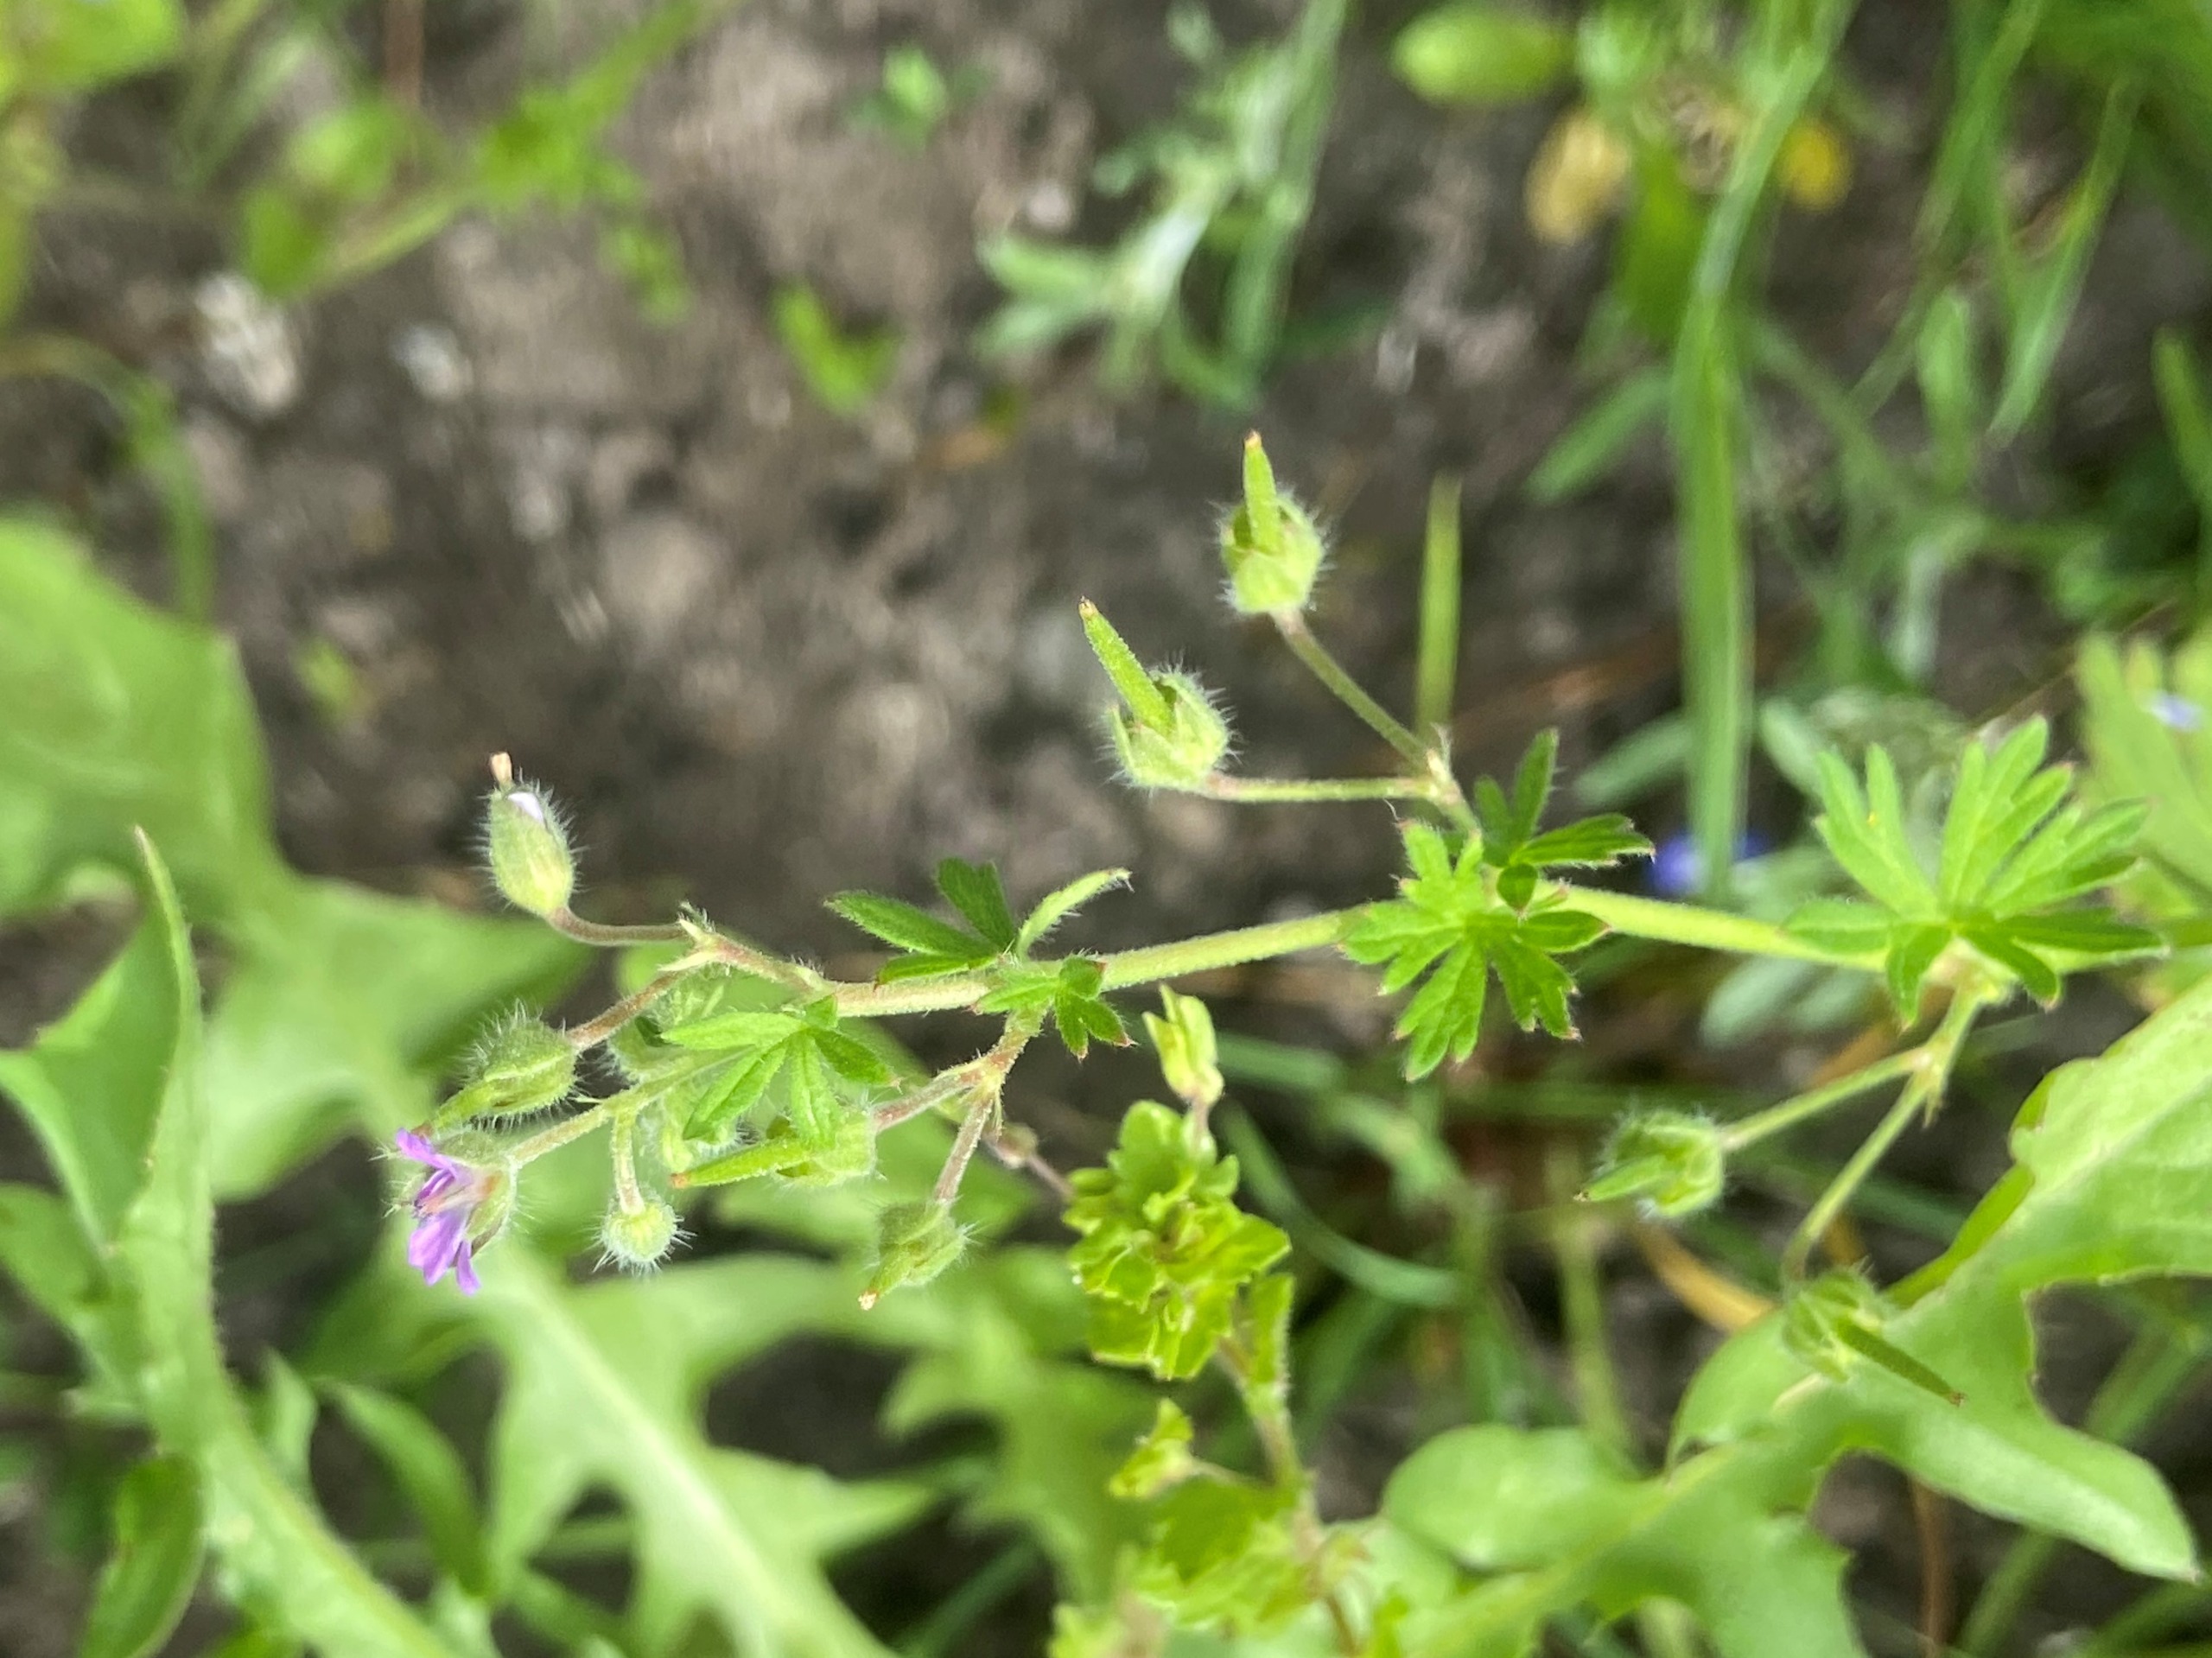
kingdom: Plantae
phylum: Tracheophyta
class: Magnoliopsida
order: Geraniales
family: Geraniaceae
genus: Geranium
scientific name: Geranium pusillum
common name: Liden storkenæb
